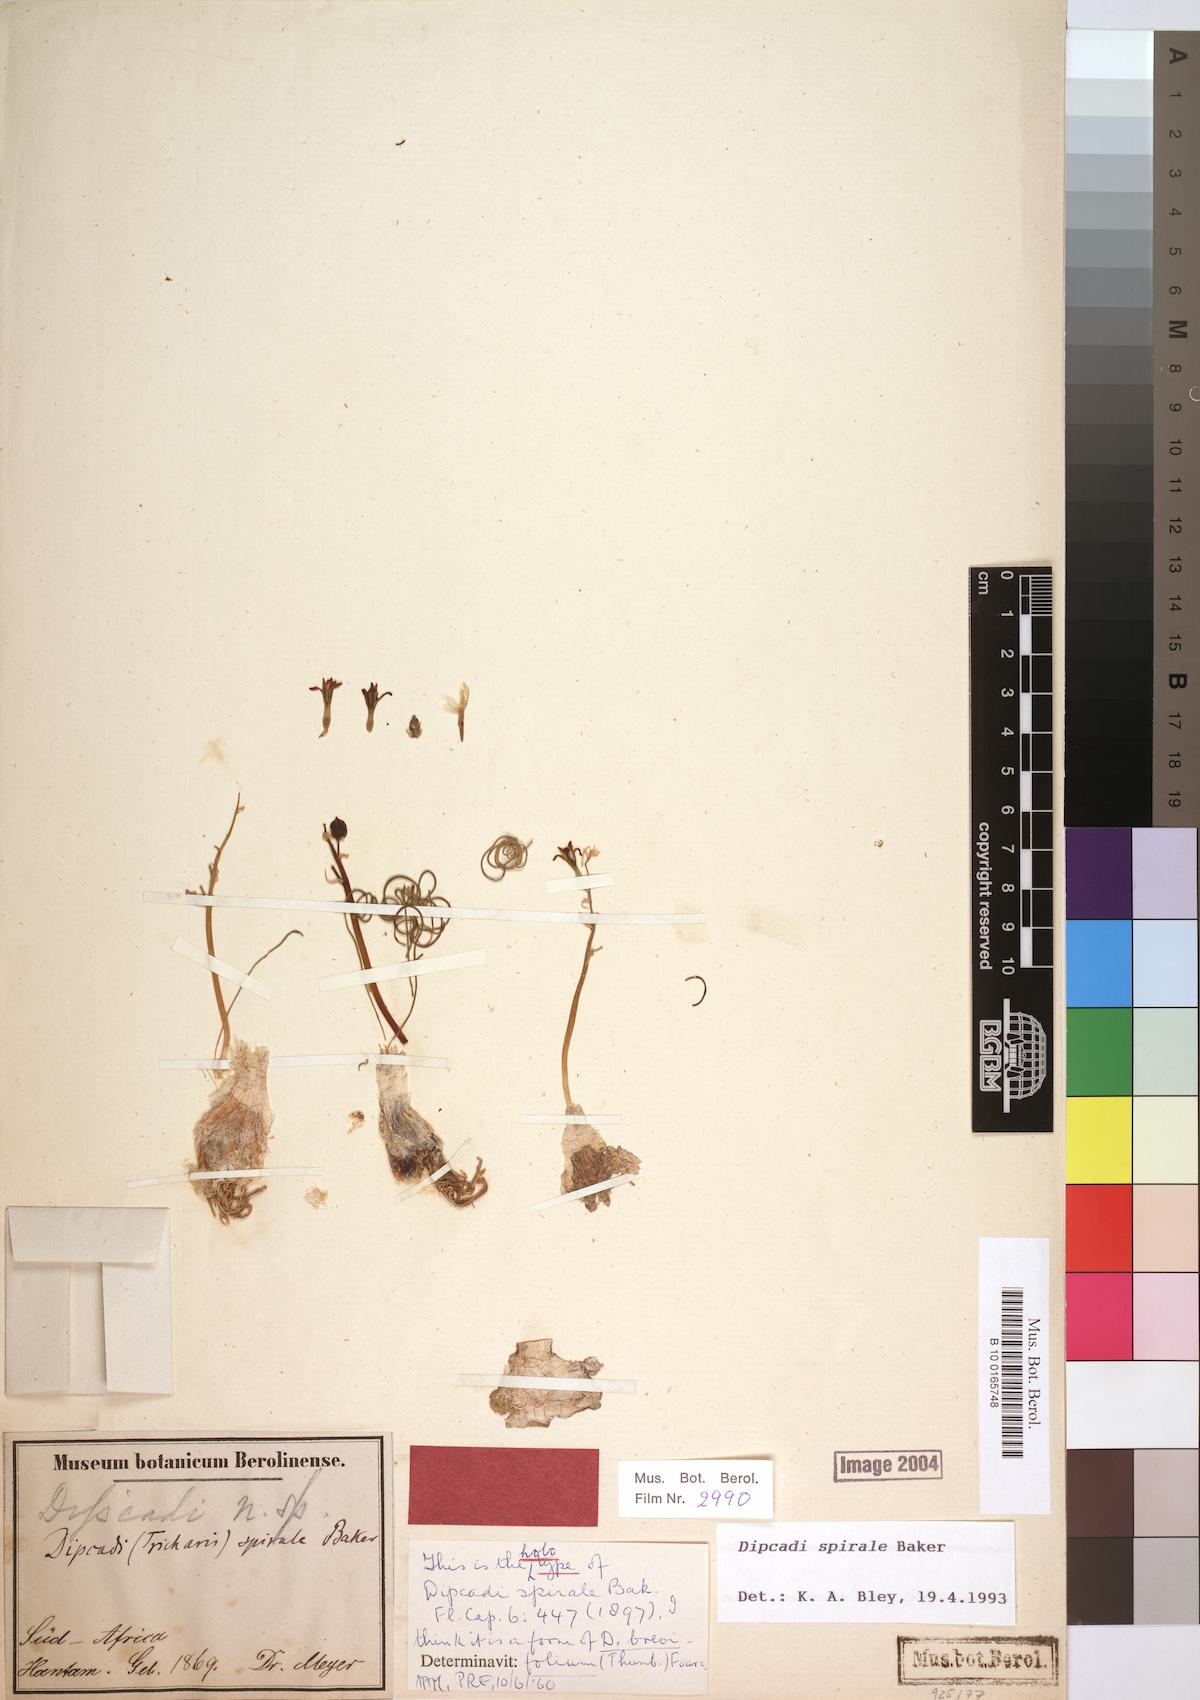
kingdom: Plantae
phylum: Tracheophyta
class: Liliopsida
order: Asparagales
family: Asparagaceae
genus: Dipcadi
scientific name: Dipcadi brevifolium
